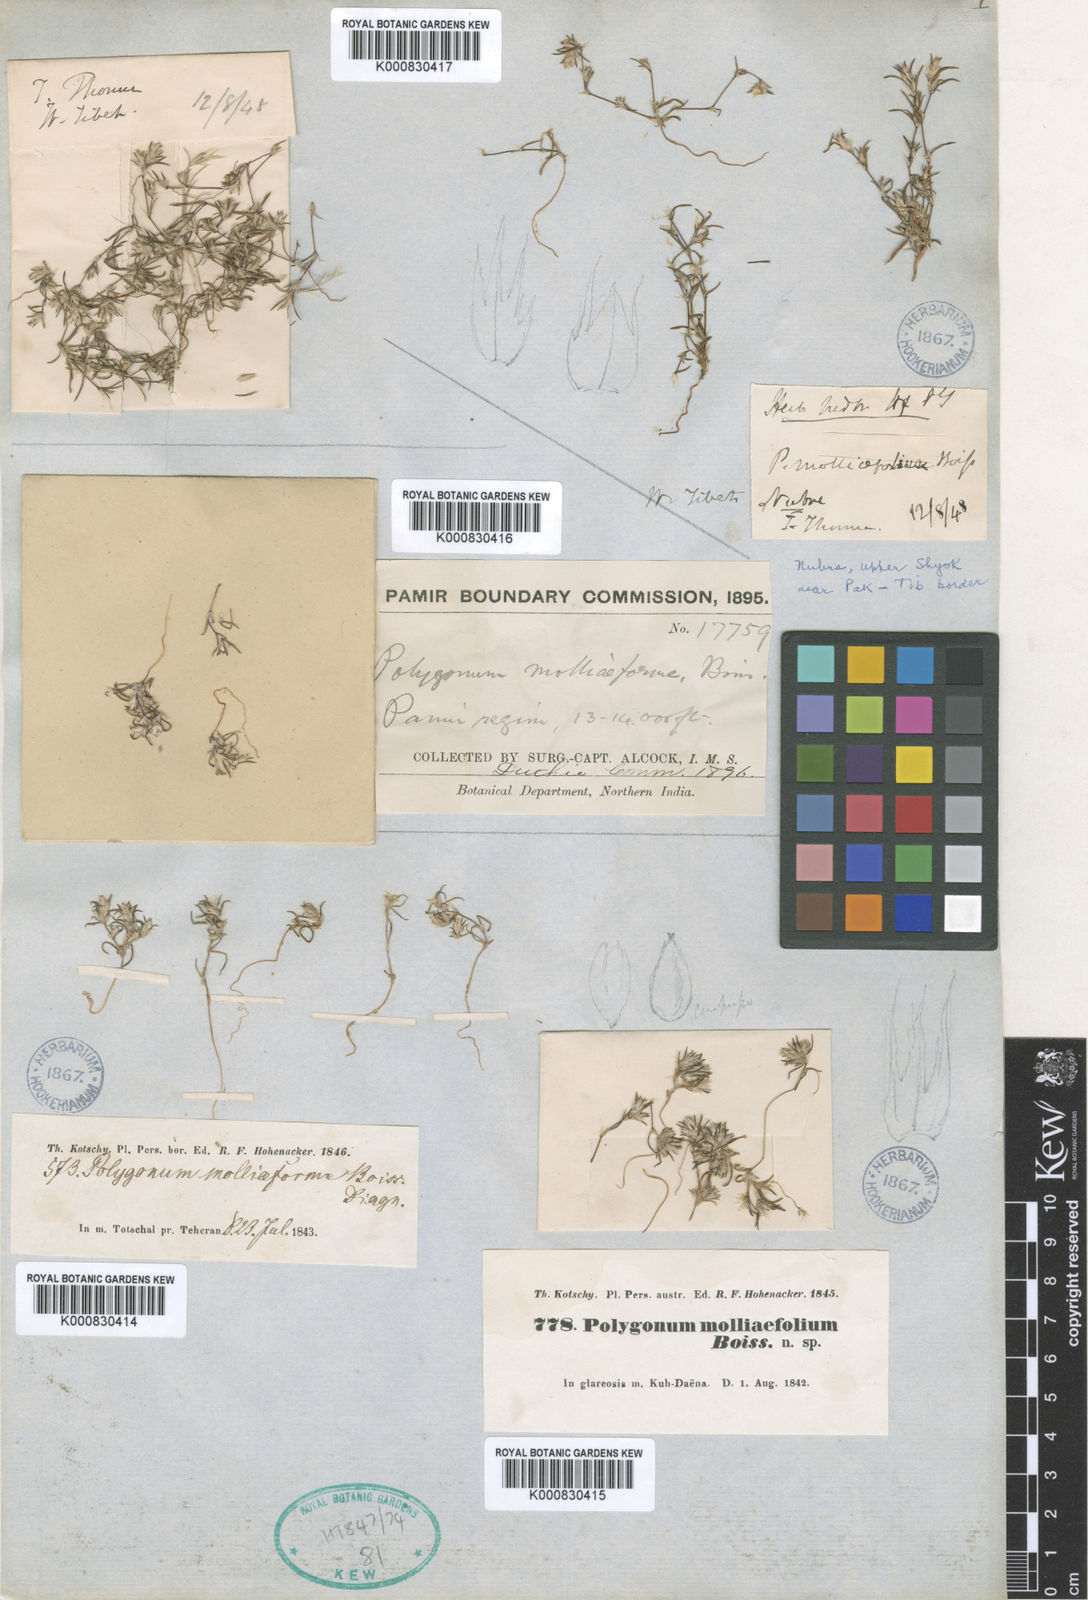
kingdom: Plantae
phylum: Tracheophyta
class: Magnoliopsida
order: Caryophyllales
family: Polygonaceae
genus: Polygonum
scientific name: Polygonum molliiforme
